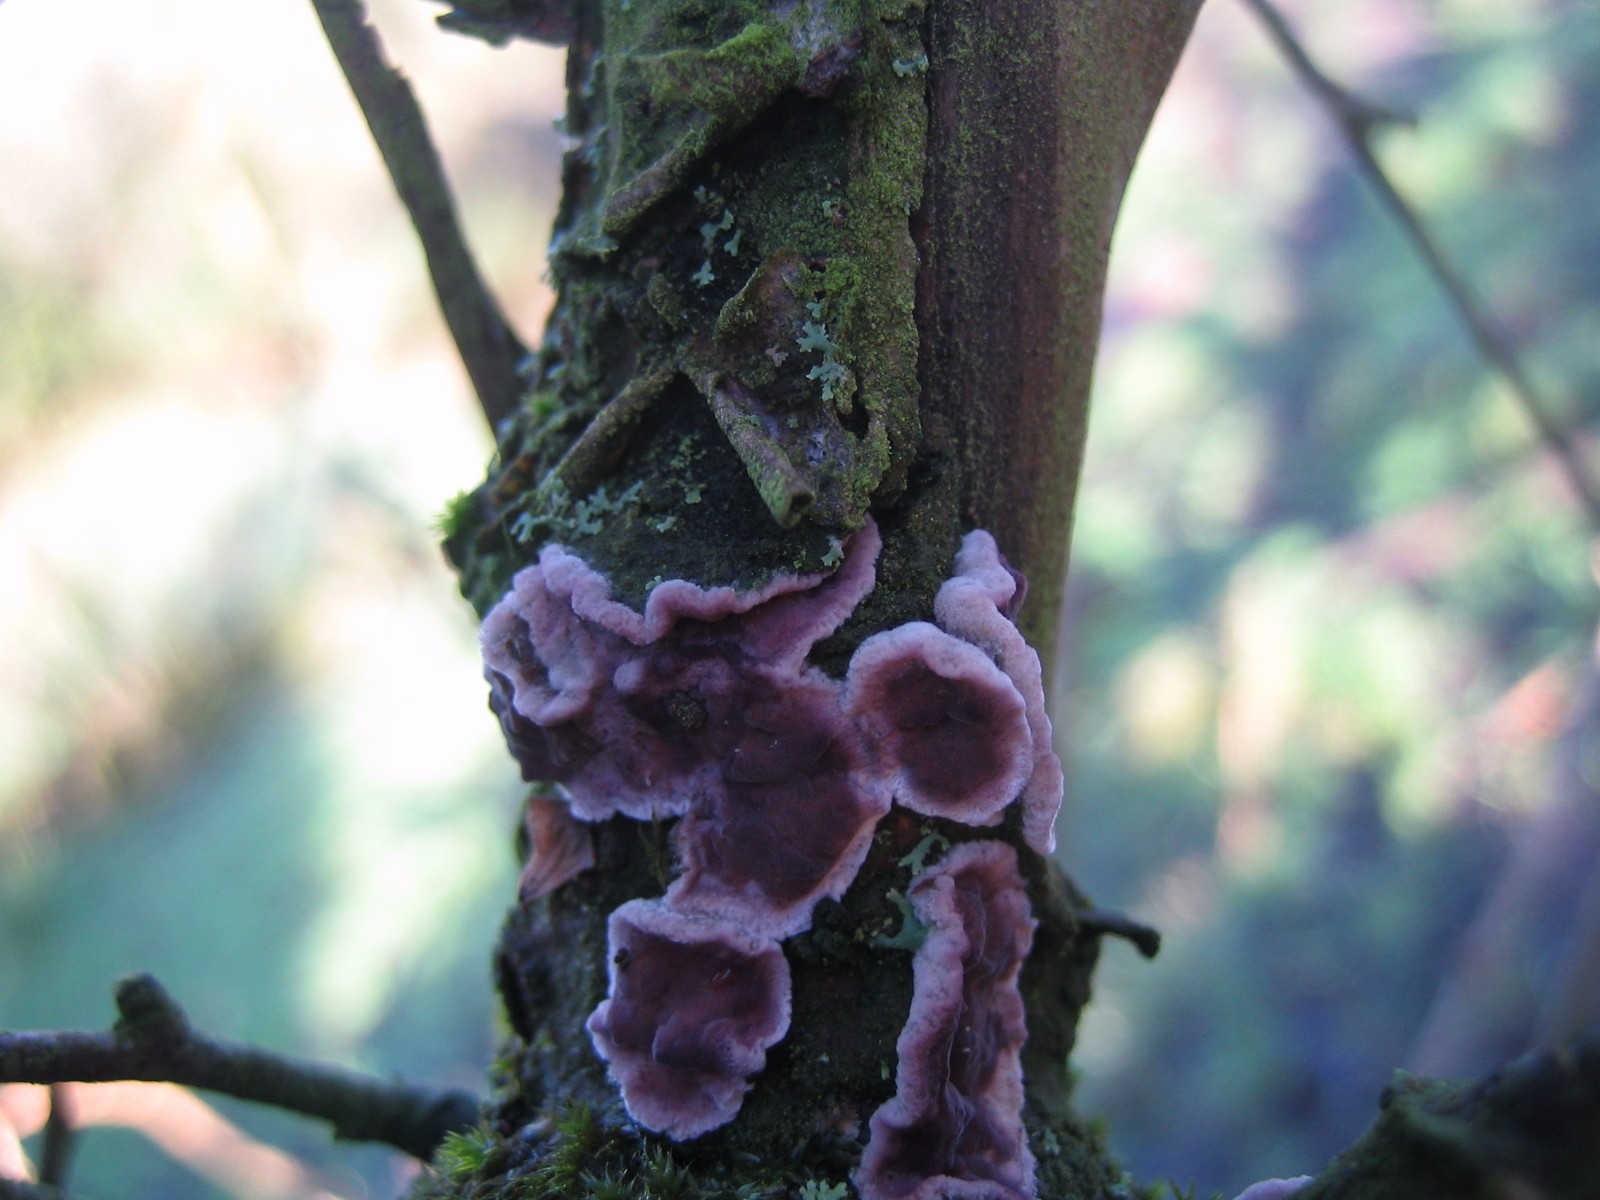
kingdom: Fungi
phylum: Basidiomycota
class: Agaricomycetes
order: Agaricales
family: Cyphellaceae
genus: Chondrostereum
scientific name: Chondrostereum purpureum
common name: purpurlædersvamp
